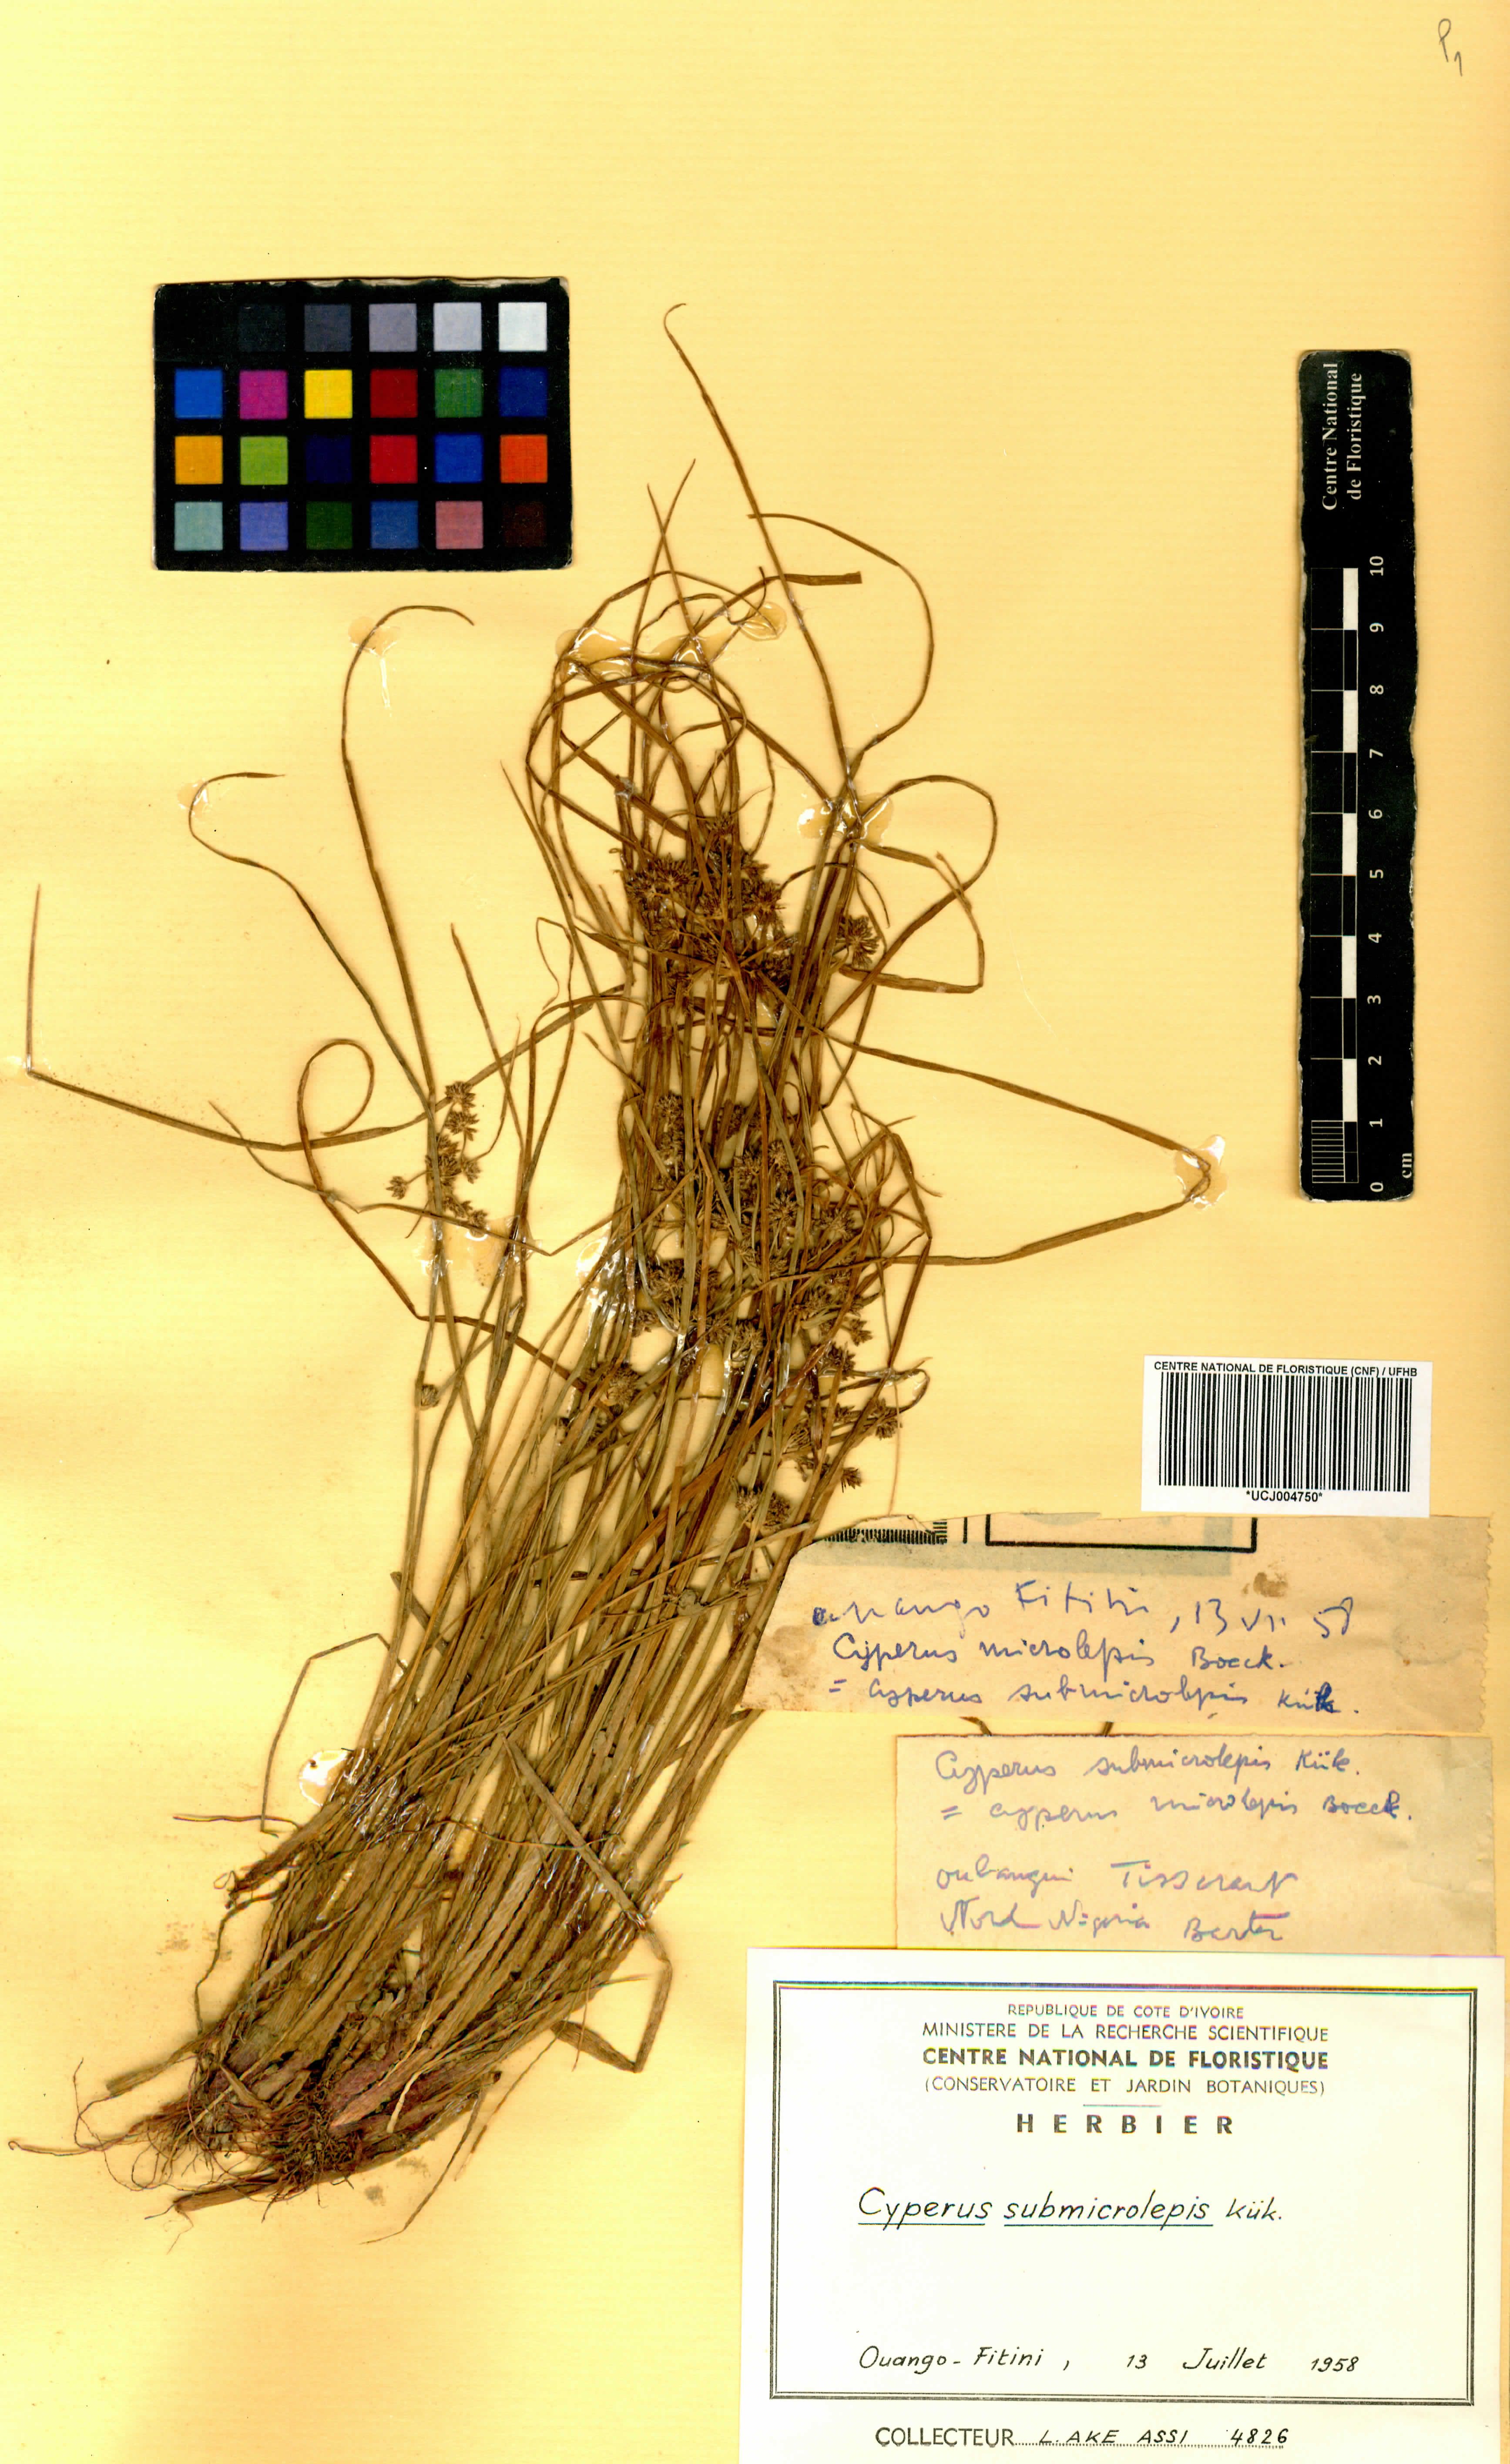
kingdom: Plantae
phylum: Tracheophyta
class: Liliopsida
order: Poales
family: Cyperaceae
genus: Cyperus
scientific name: Cyperus submicrolepis
